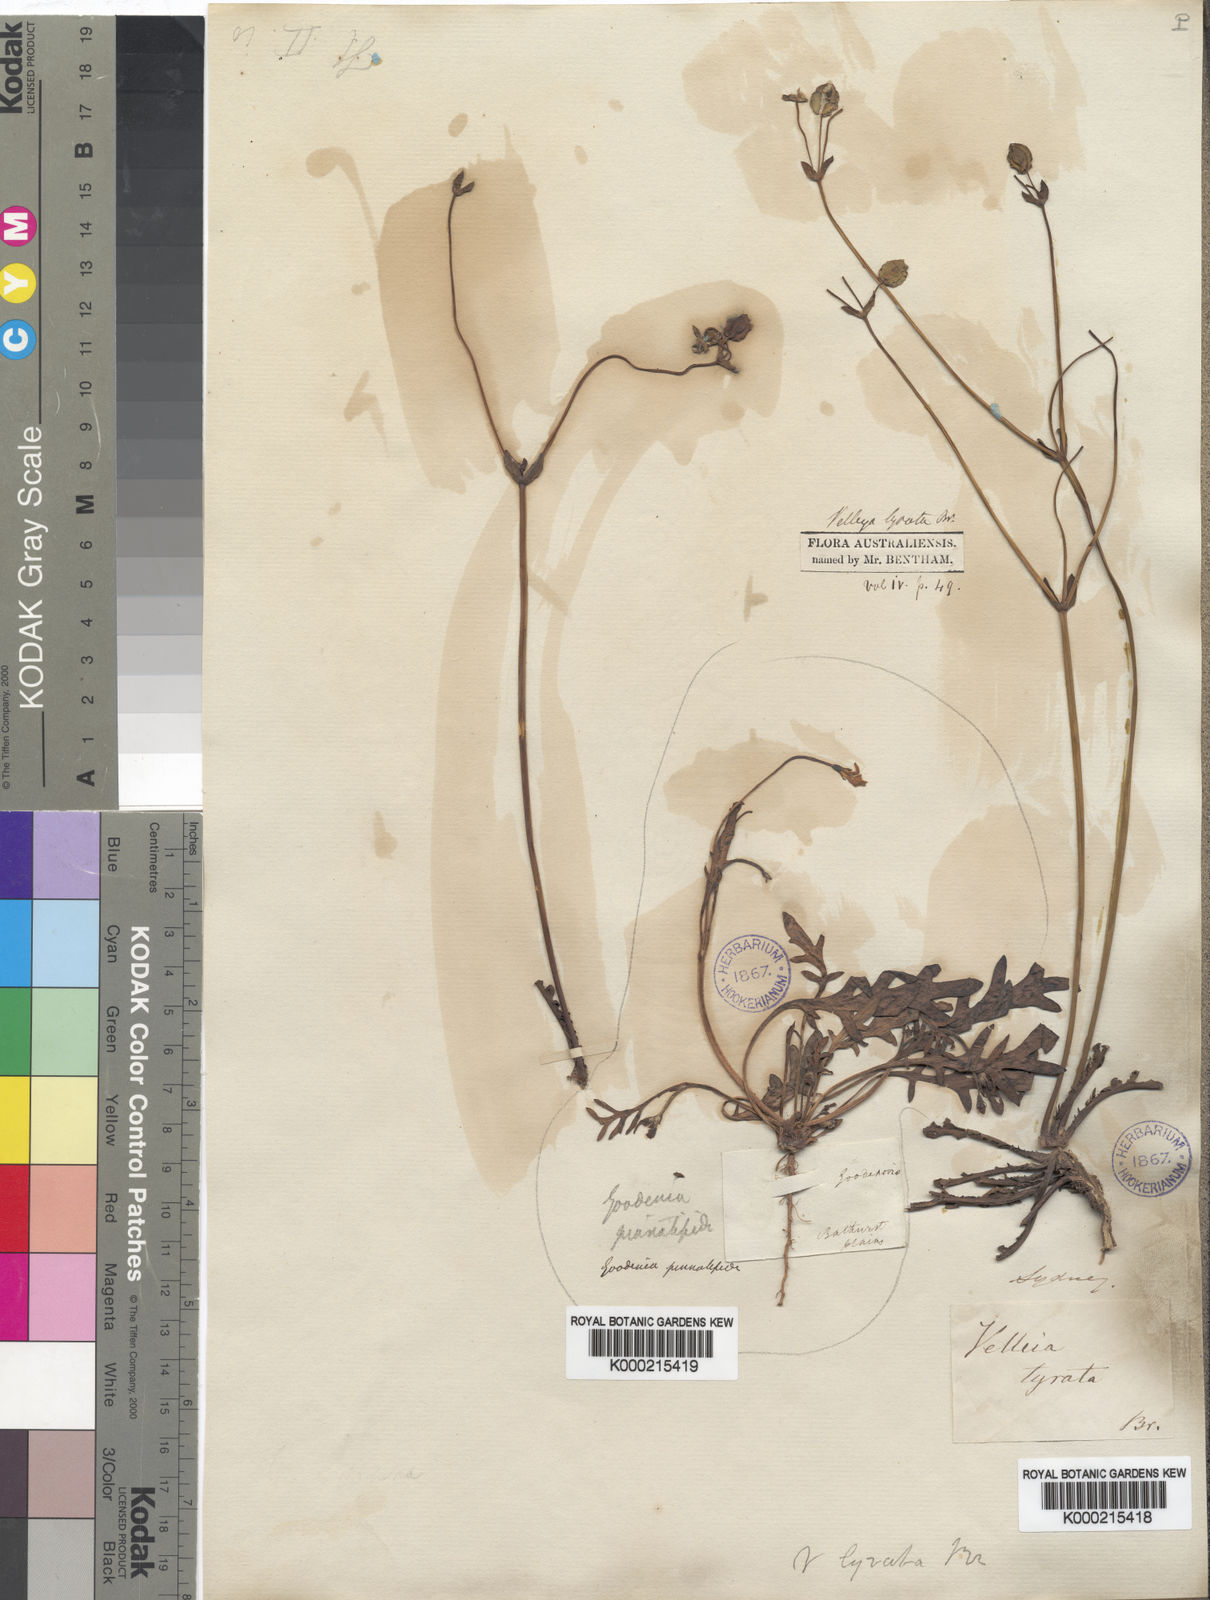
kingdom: Plantae
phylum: Tracheophyta
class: Magnoliopsida
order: Asterales
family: Goodeniaceae
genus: Goodenia
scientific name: Goodenia caroliniana
